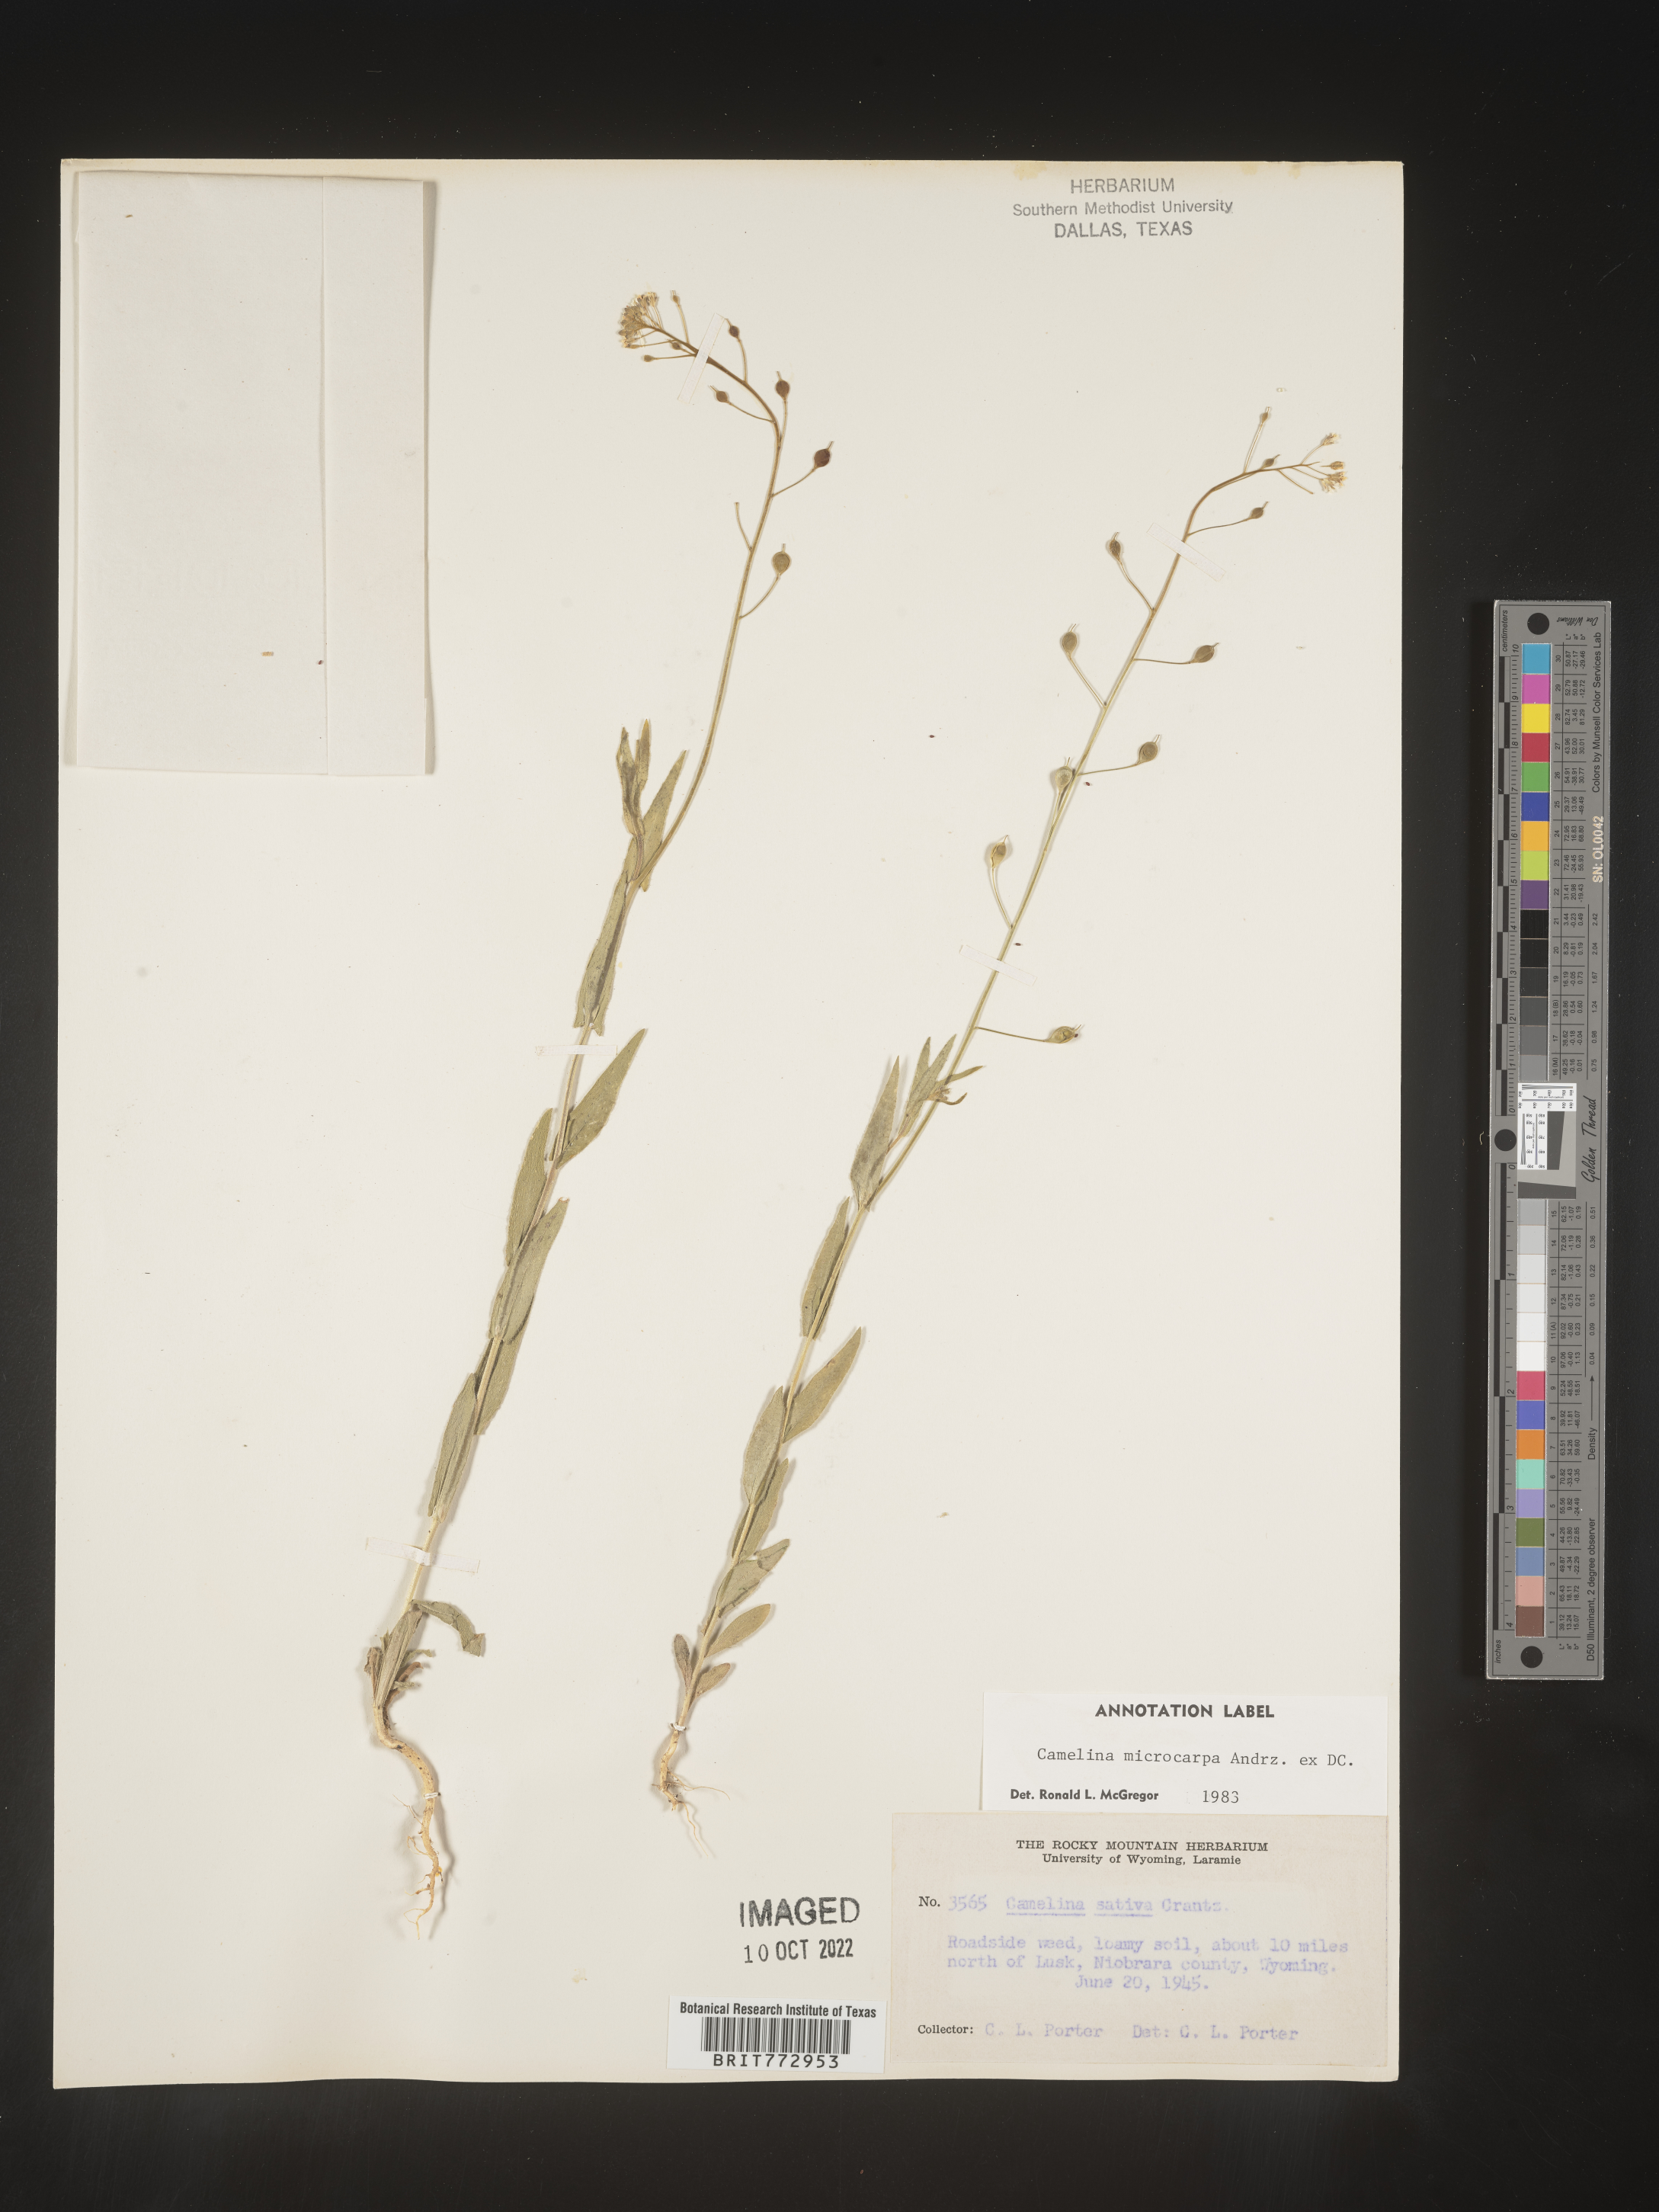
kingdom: Plantae
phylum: Tracheophyta
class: Magnoliopsida
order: Brassicales
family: Brassicaceae
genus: Camelina
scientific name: Camelina microcarpa
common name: Lesser gold-of-pleasure
